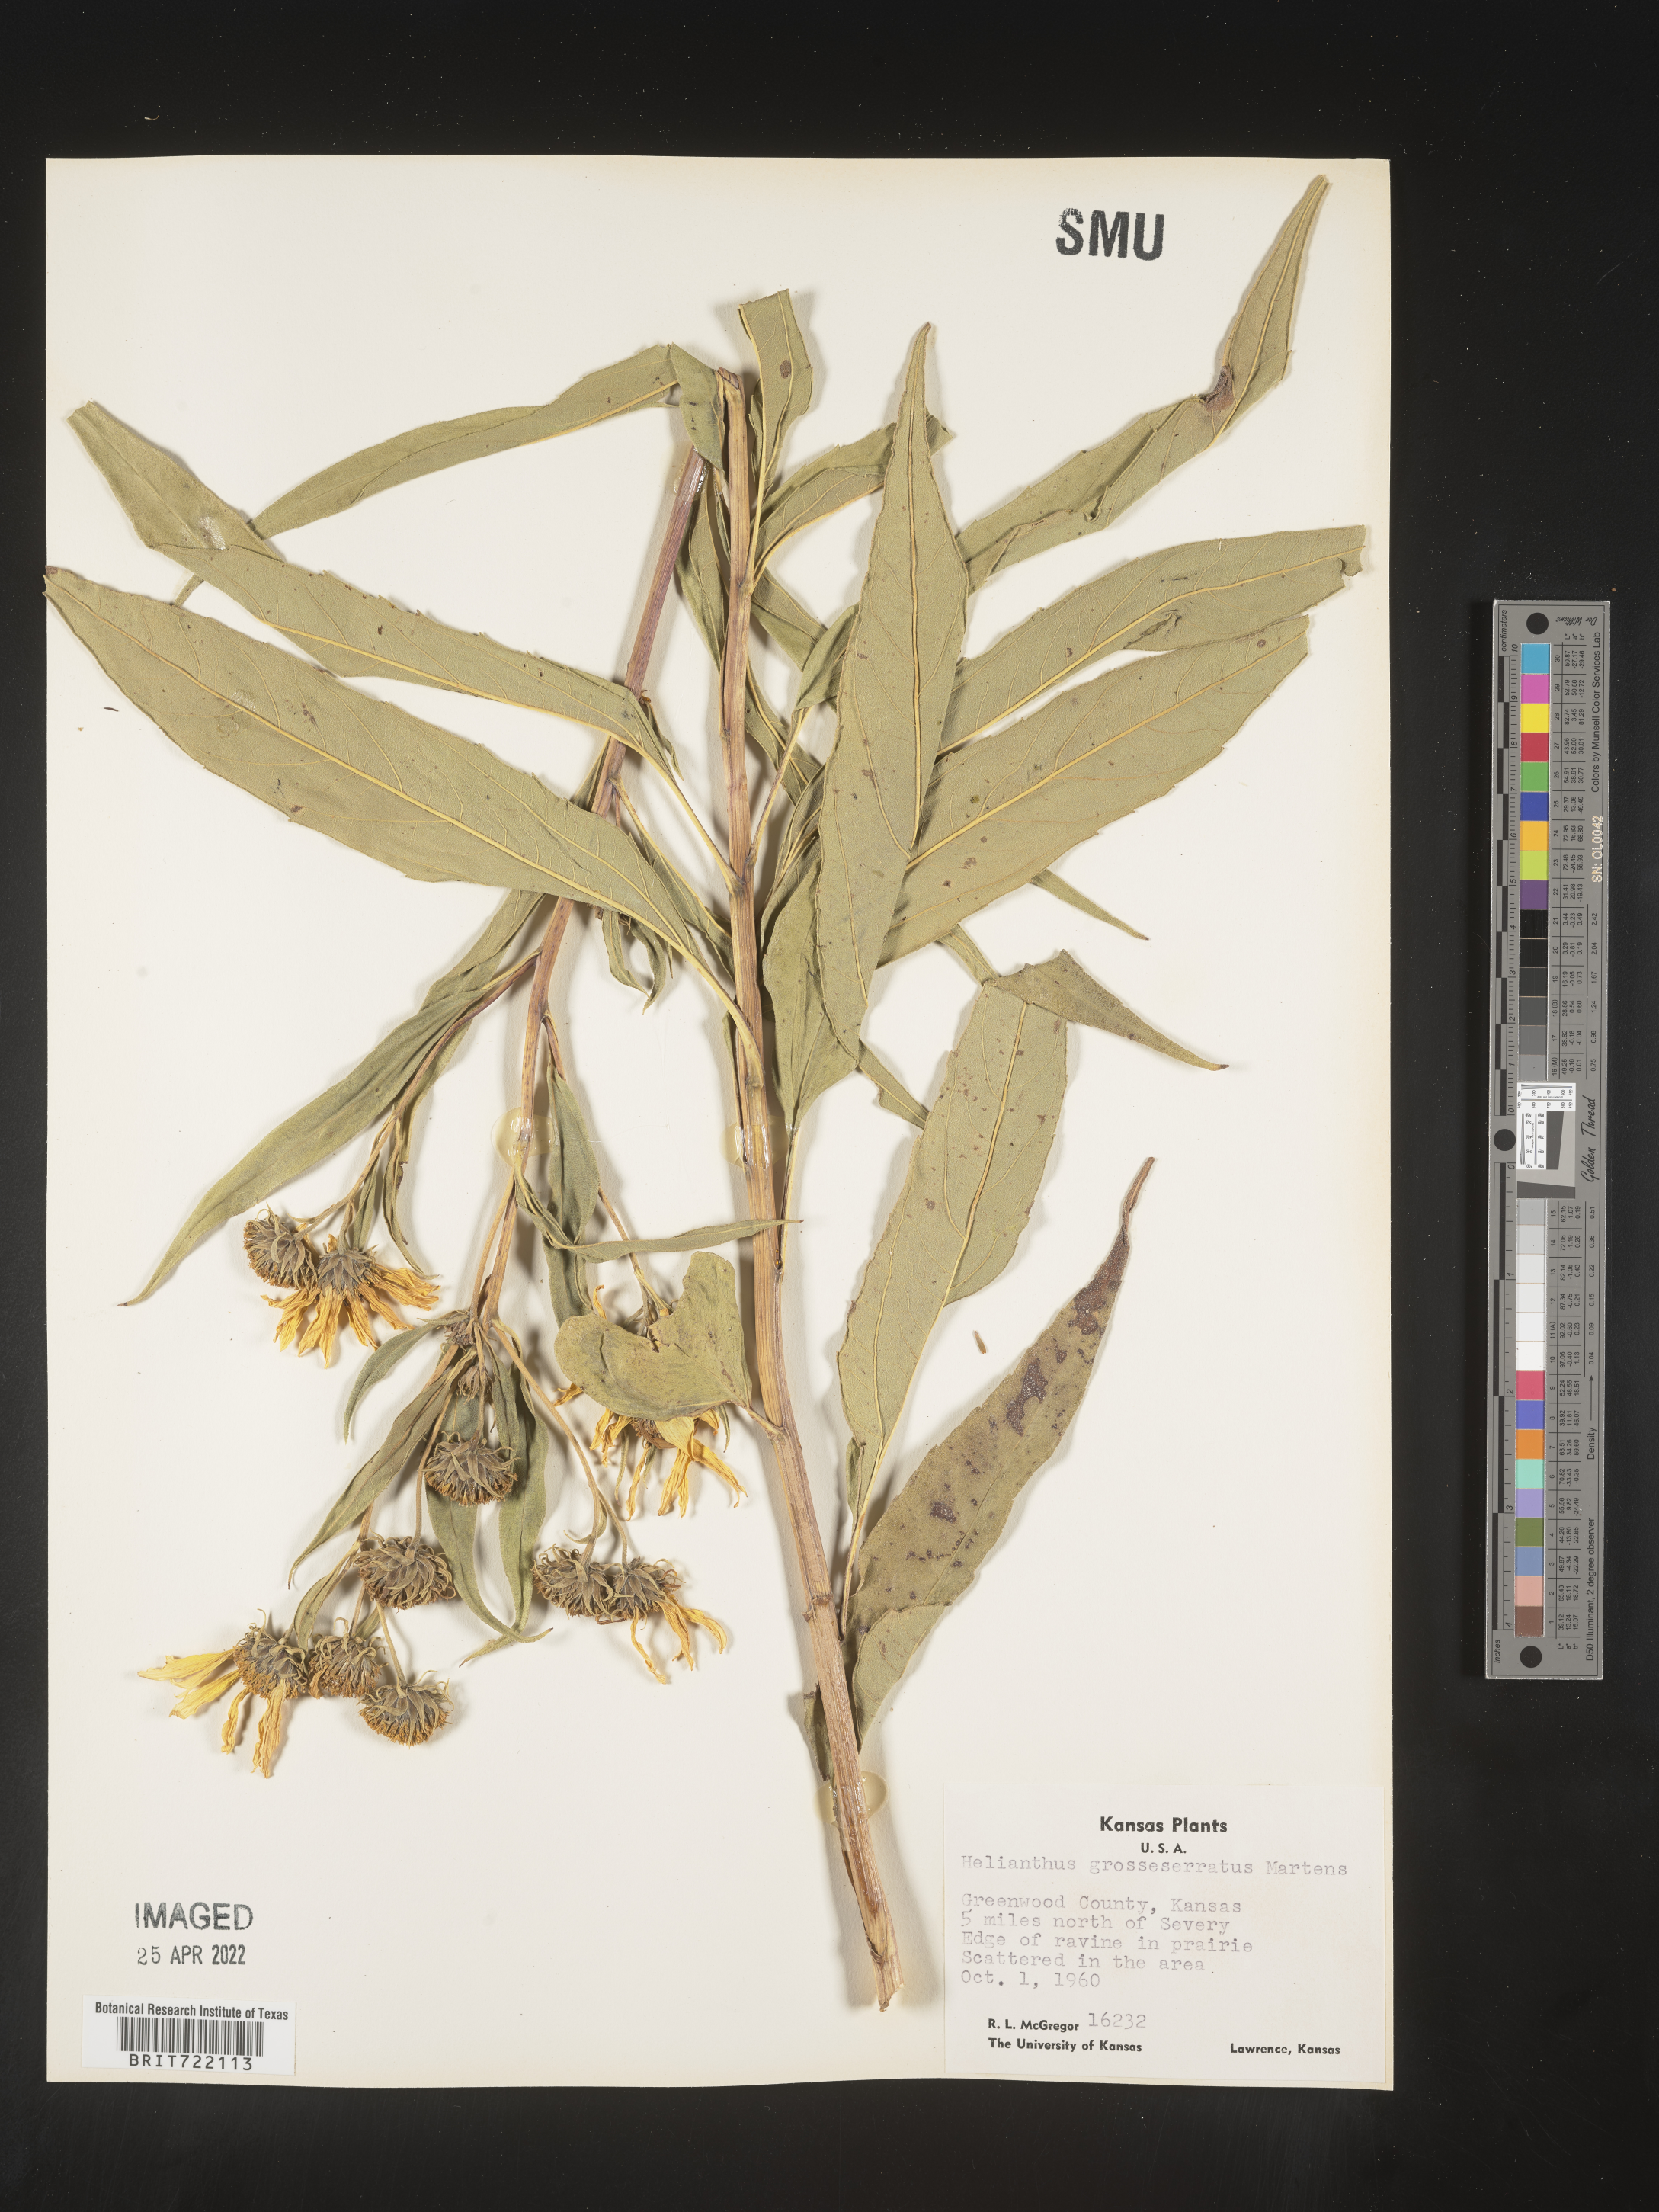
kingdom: Plantae
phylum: Tracheophyta
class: Magnoliopsida
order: Asterales
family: Asteraceae
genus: Helianthus
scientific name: Helianthus grosseserratus
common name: Sawtooth sunflower
